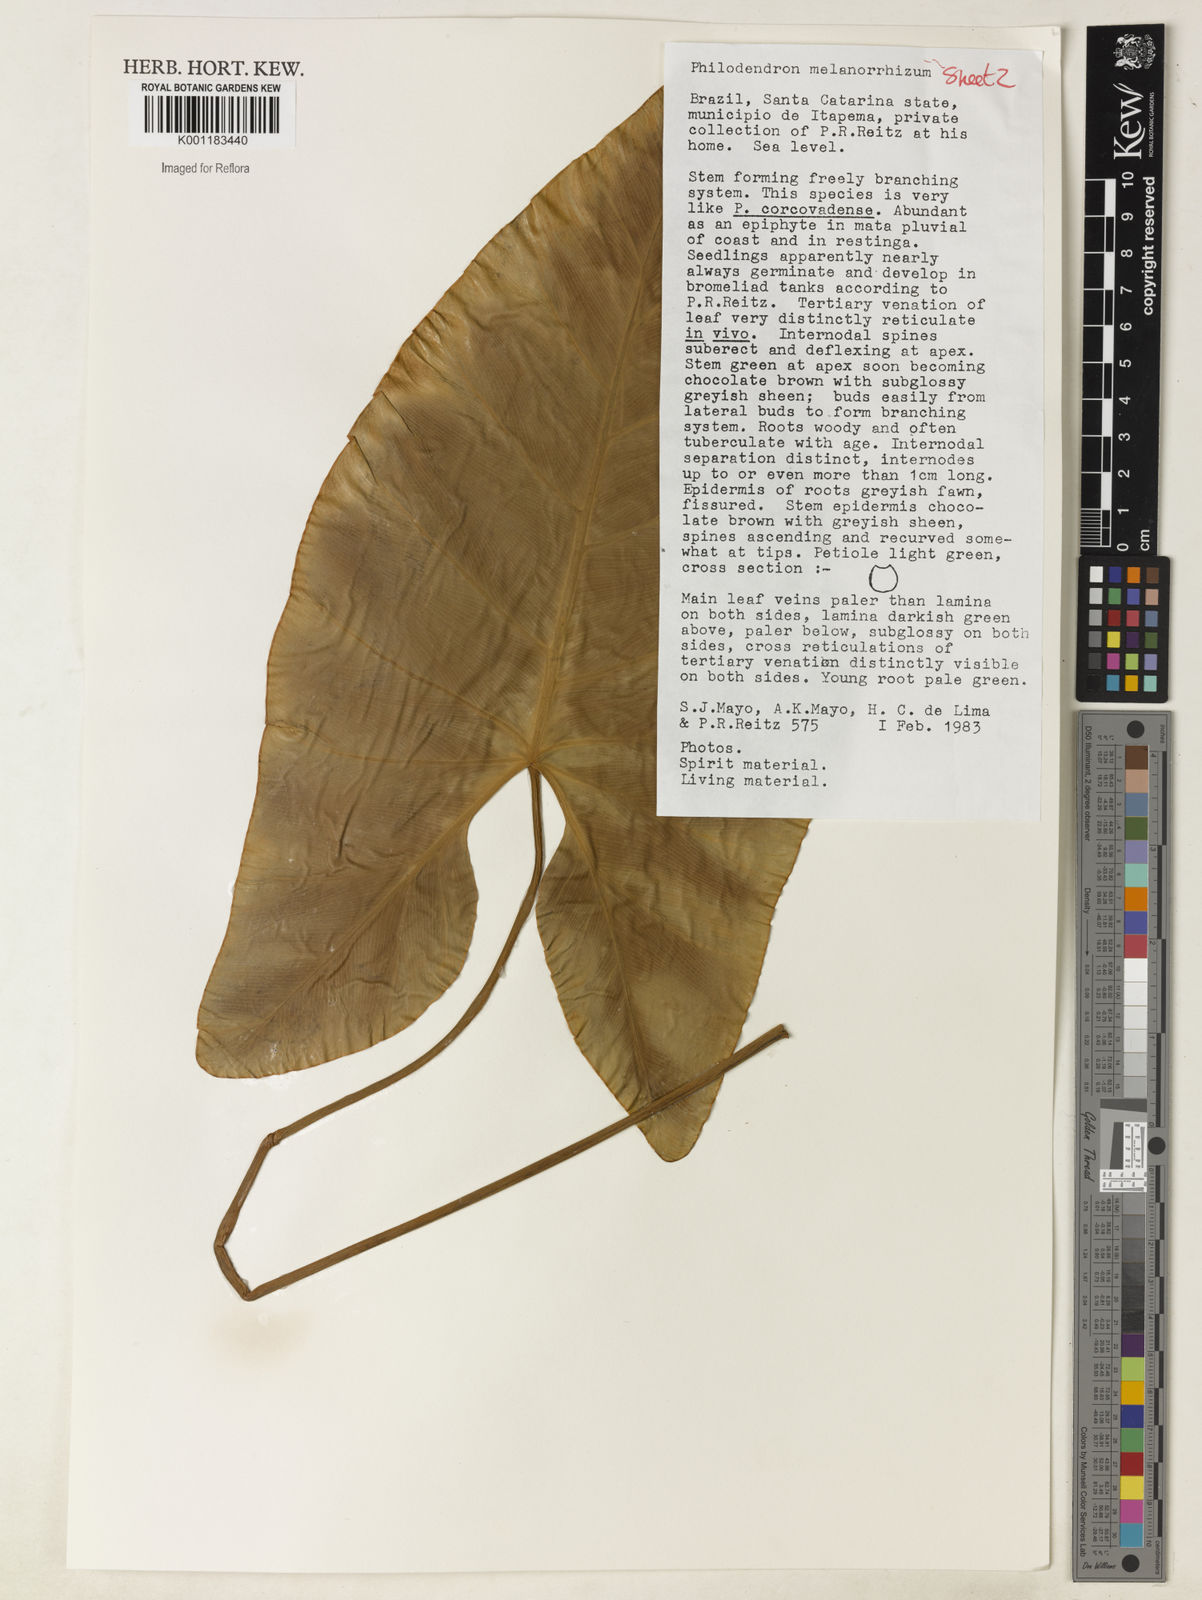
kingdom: Plantae
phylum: Tracheophyta
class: Liliopsida
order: Alismatales
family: Araceae
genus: Thaumatophyllum
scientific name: Thaumatophyllum corcovadense
